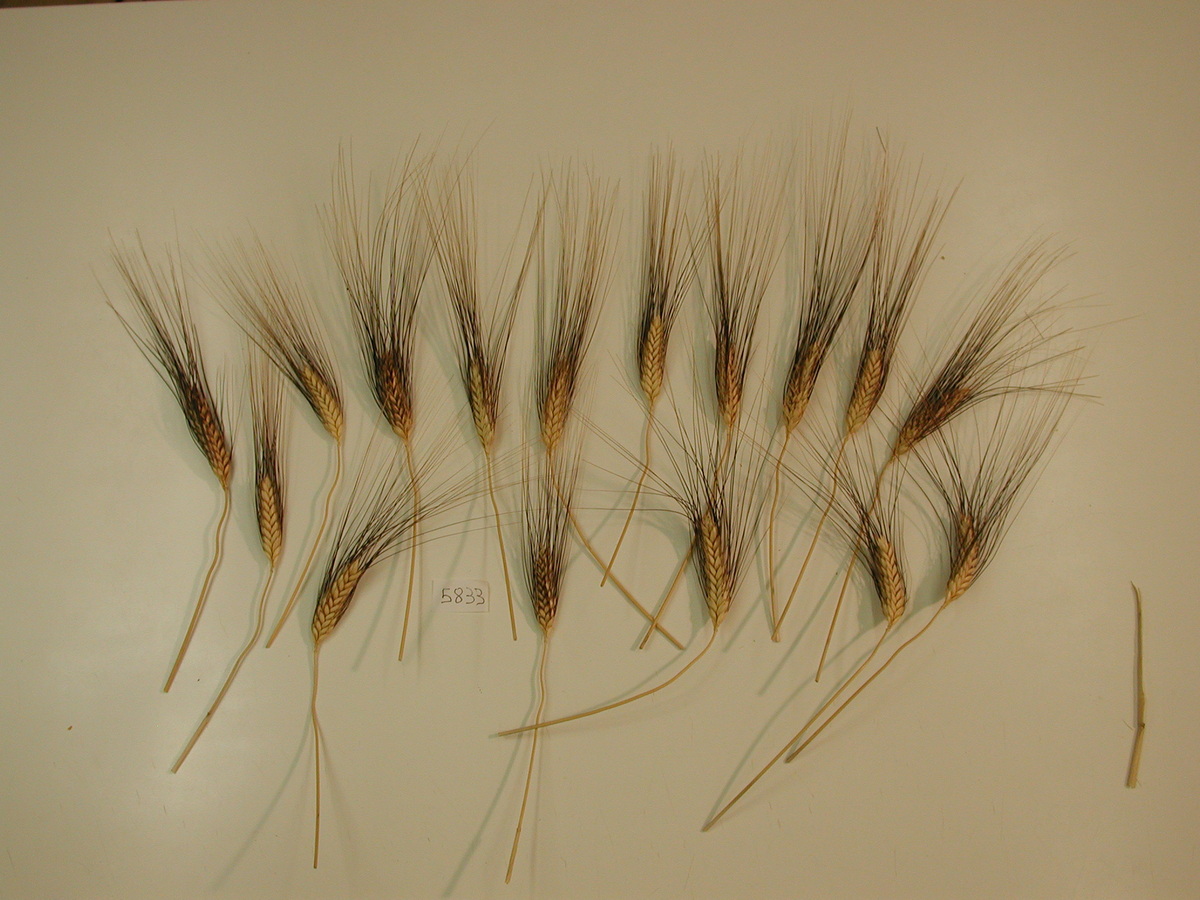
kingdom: Plantae
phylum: Tracheophyta
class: Liliopsida
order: Poales
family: Poaceae
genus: Triticum
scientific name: Triticum turgidum
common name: Wheat
